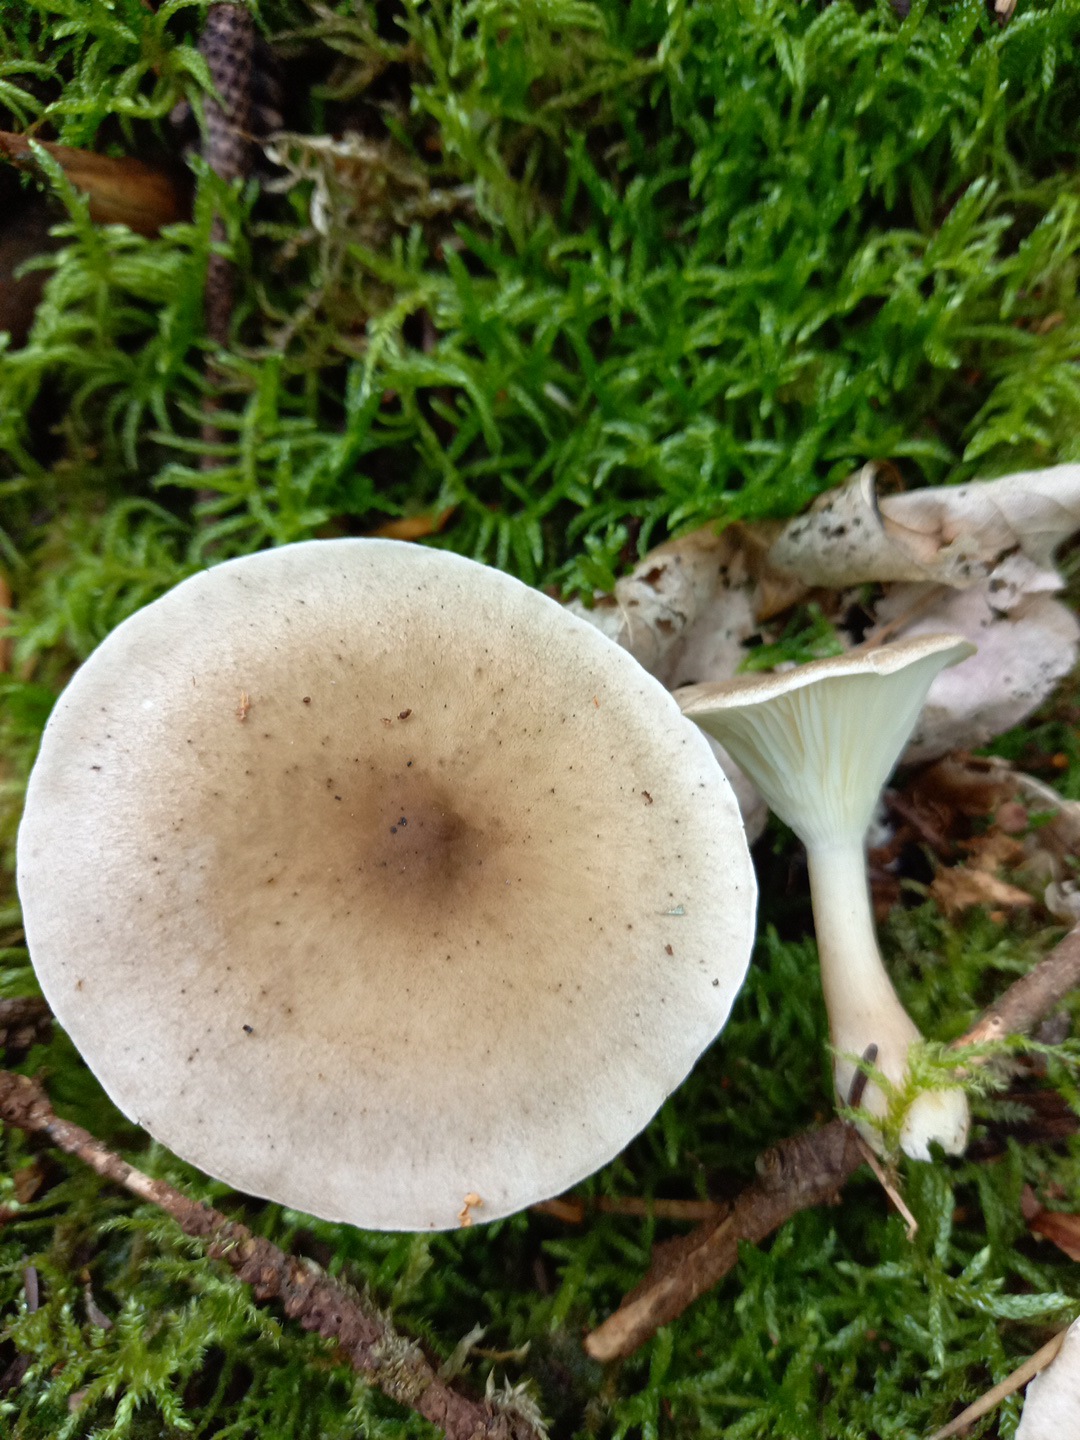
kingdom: Fungi
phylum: Basidiomycota
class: Agaricomycetes
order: Agaricales
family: Hygrophoraceae
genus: Ampulloclitocybe
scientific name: Ampulloclitocybe clavipes
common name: køllefod
